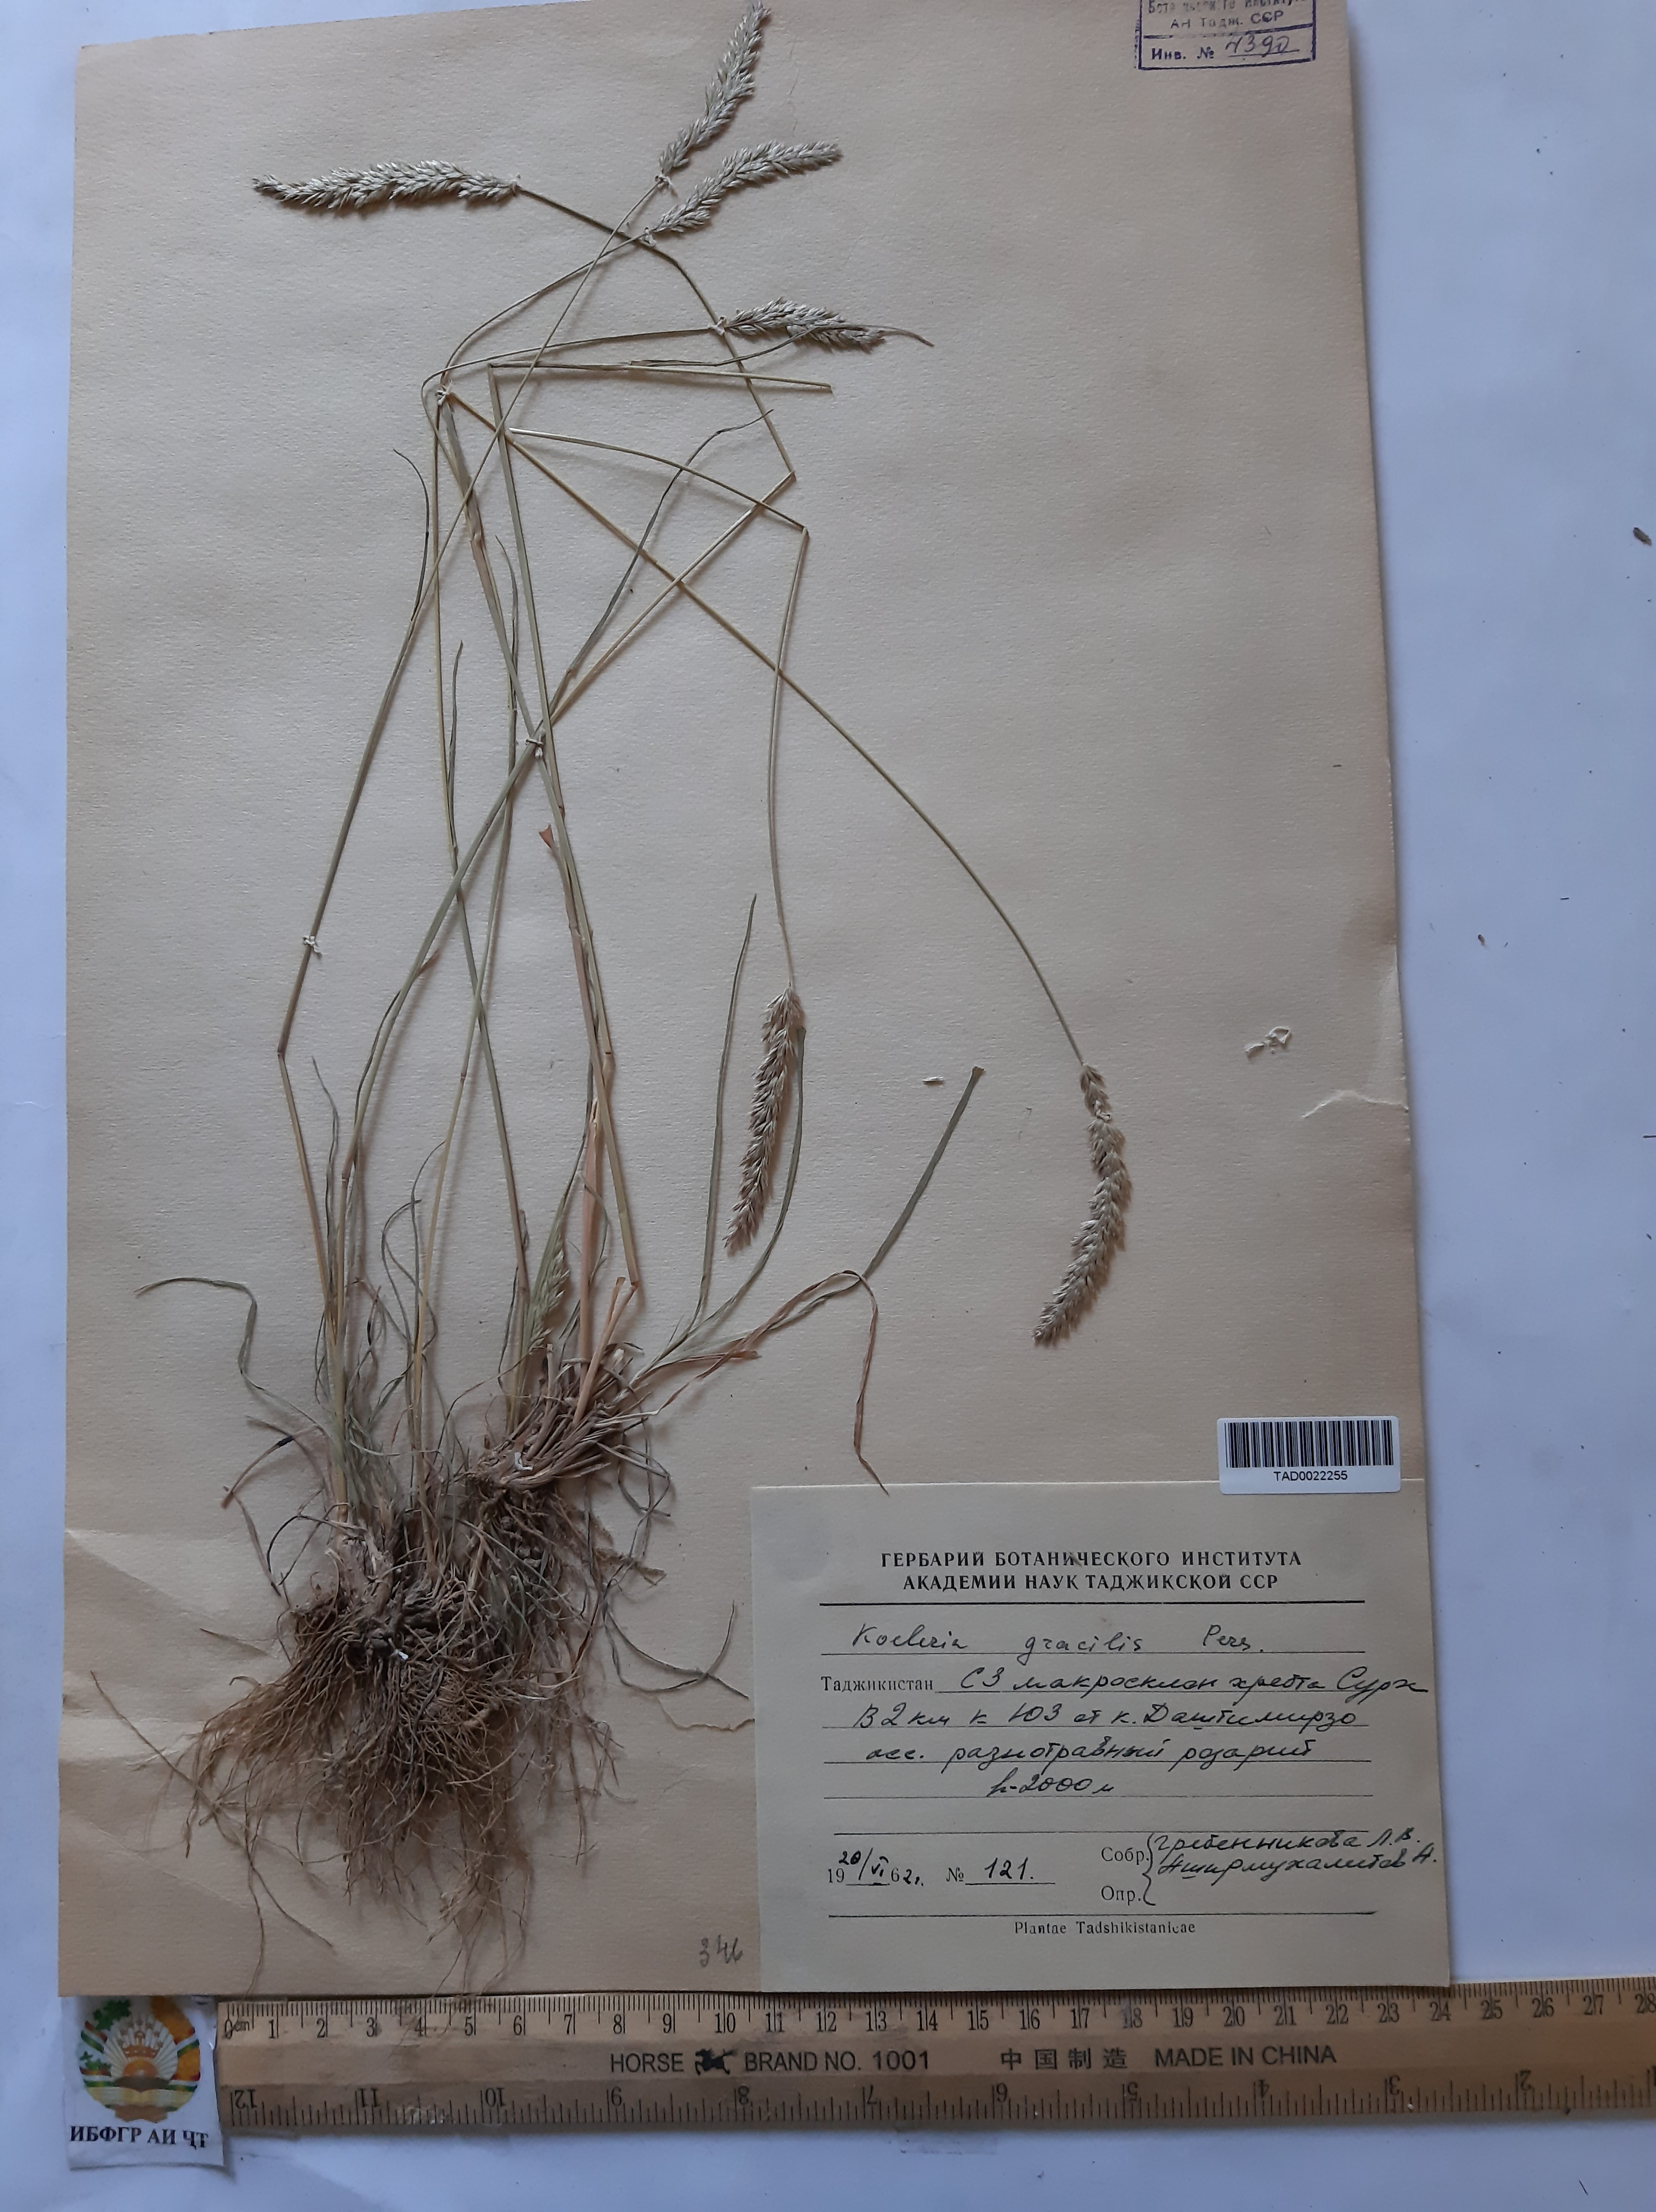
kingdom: Plantae
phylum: Tracheophyta
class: Liliopsida
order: Poales
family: Poaceae
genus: Koeleria
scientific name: Koeleria macrantha
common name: Crested hair-grass
